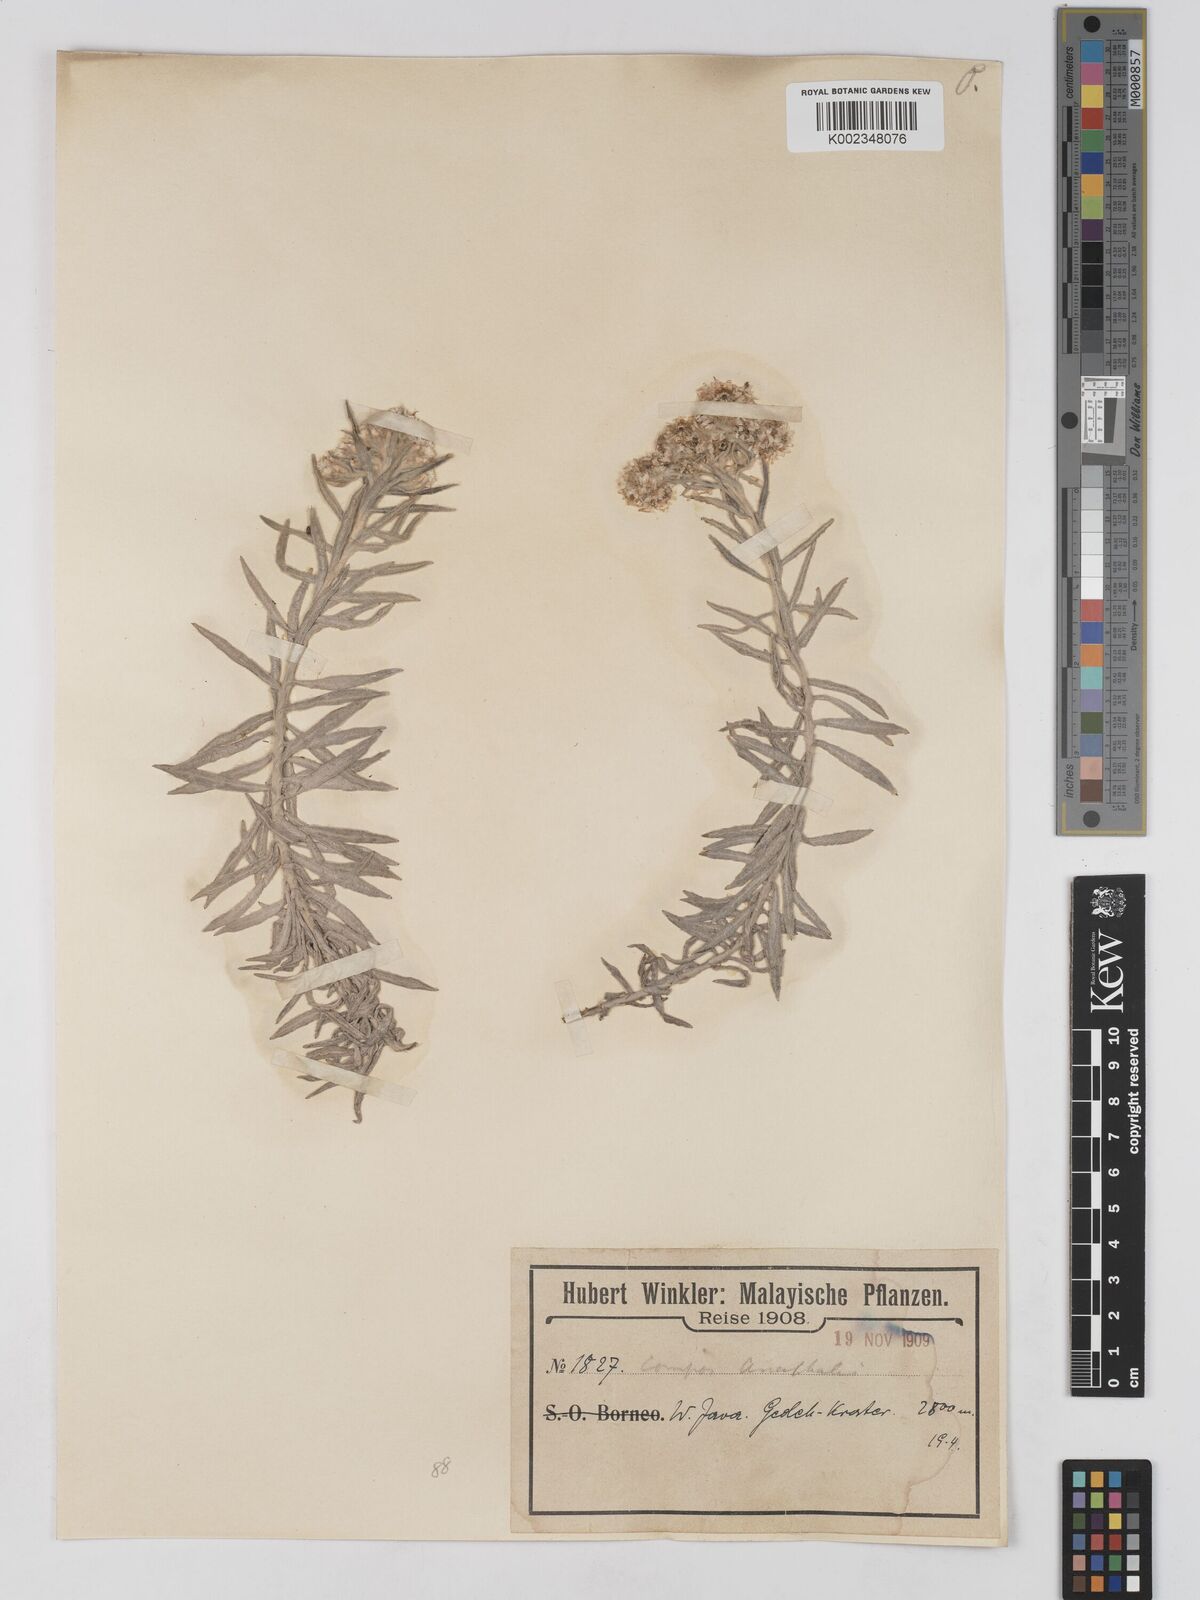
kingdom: Plantae
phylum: Tracheophyta
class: Magnoliopsida
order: Asterales
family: Asteraceae
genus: Anaphalis
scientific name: Anaphalis
